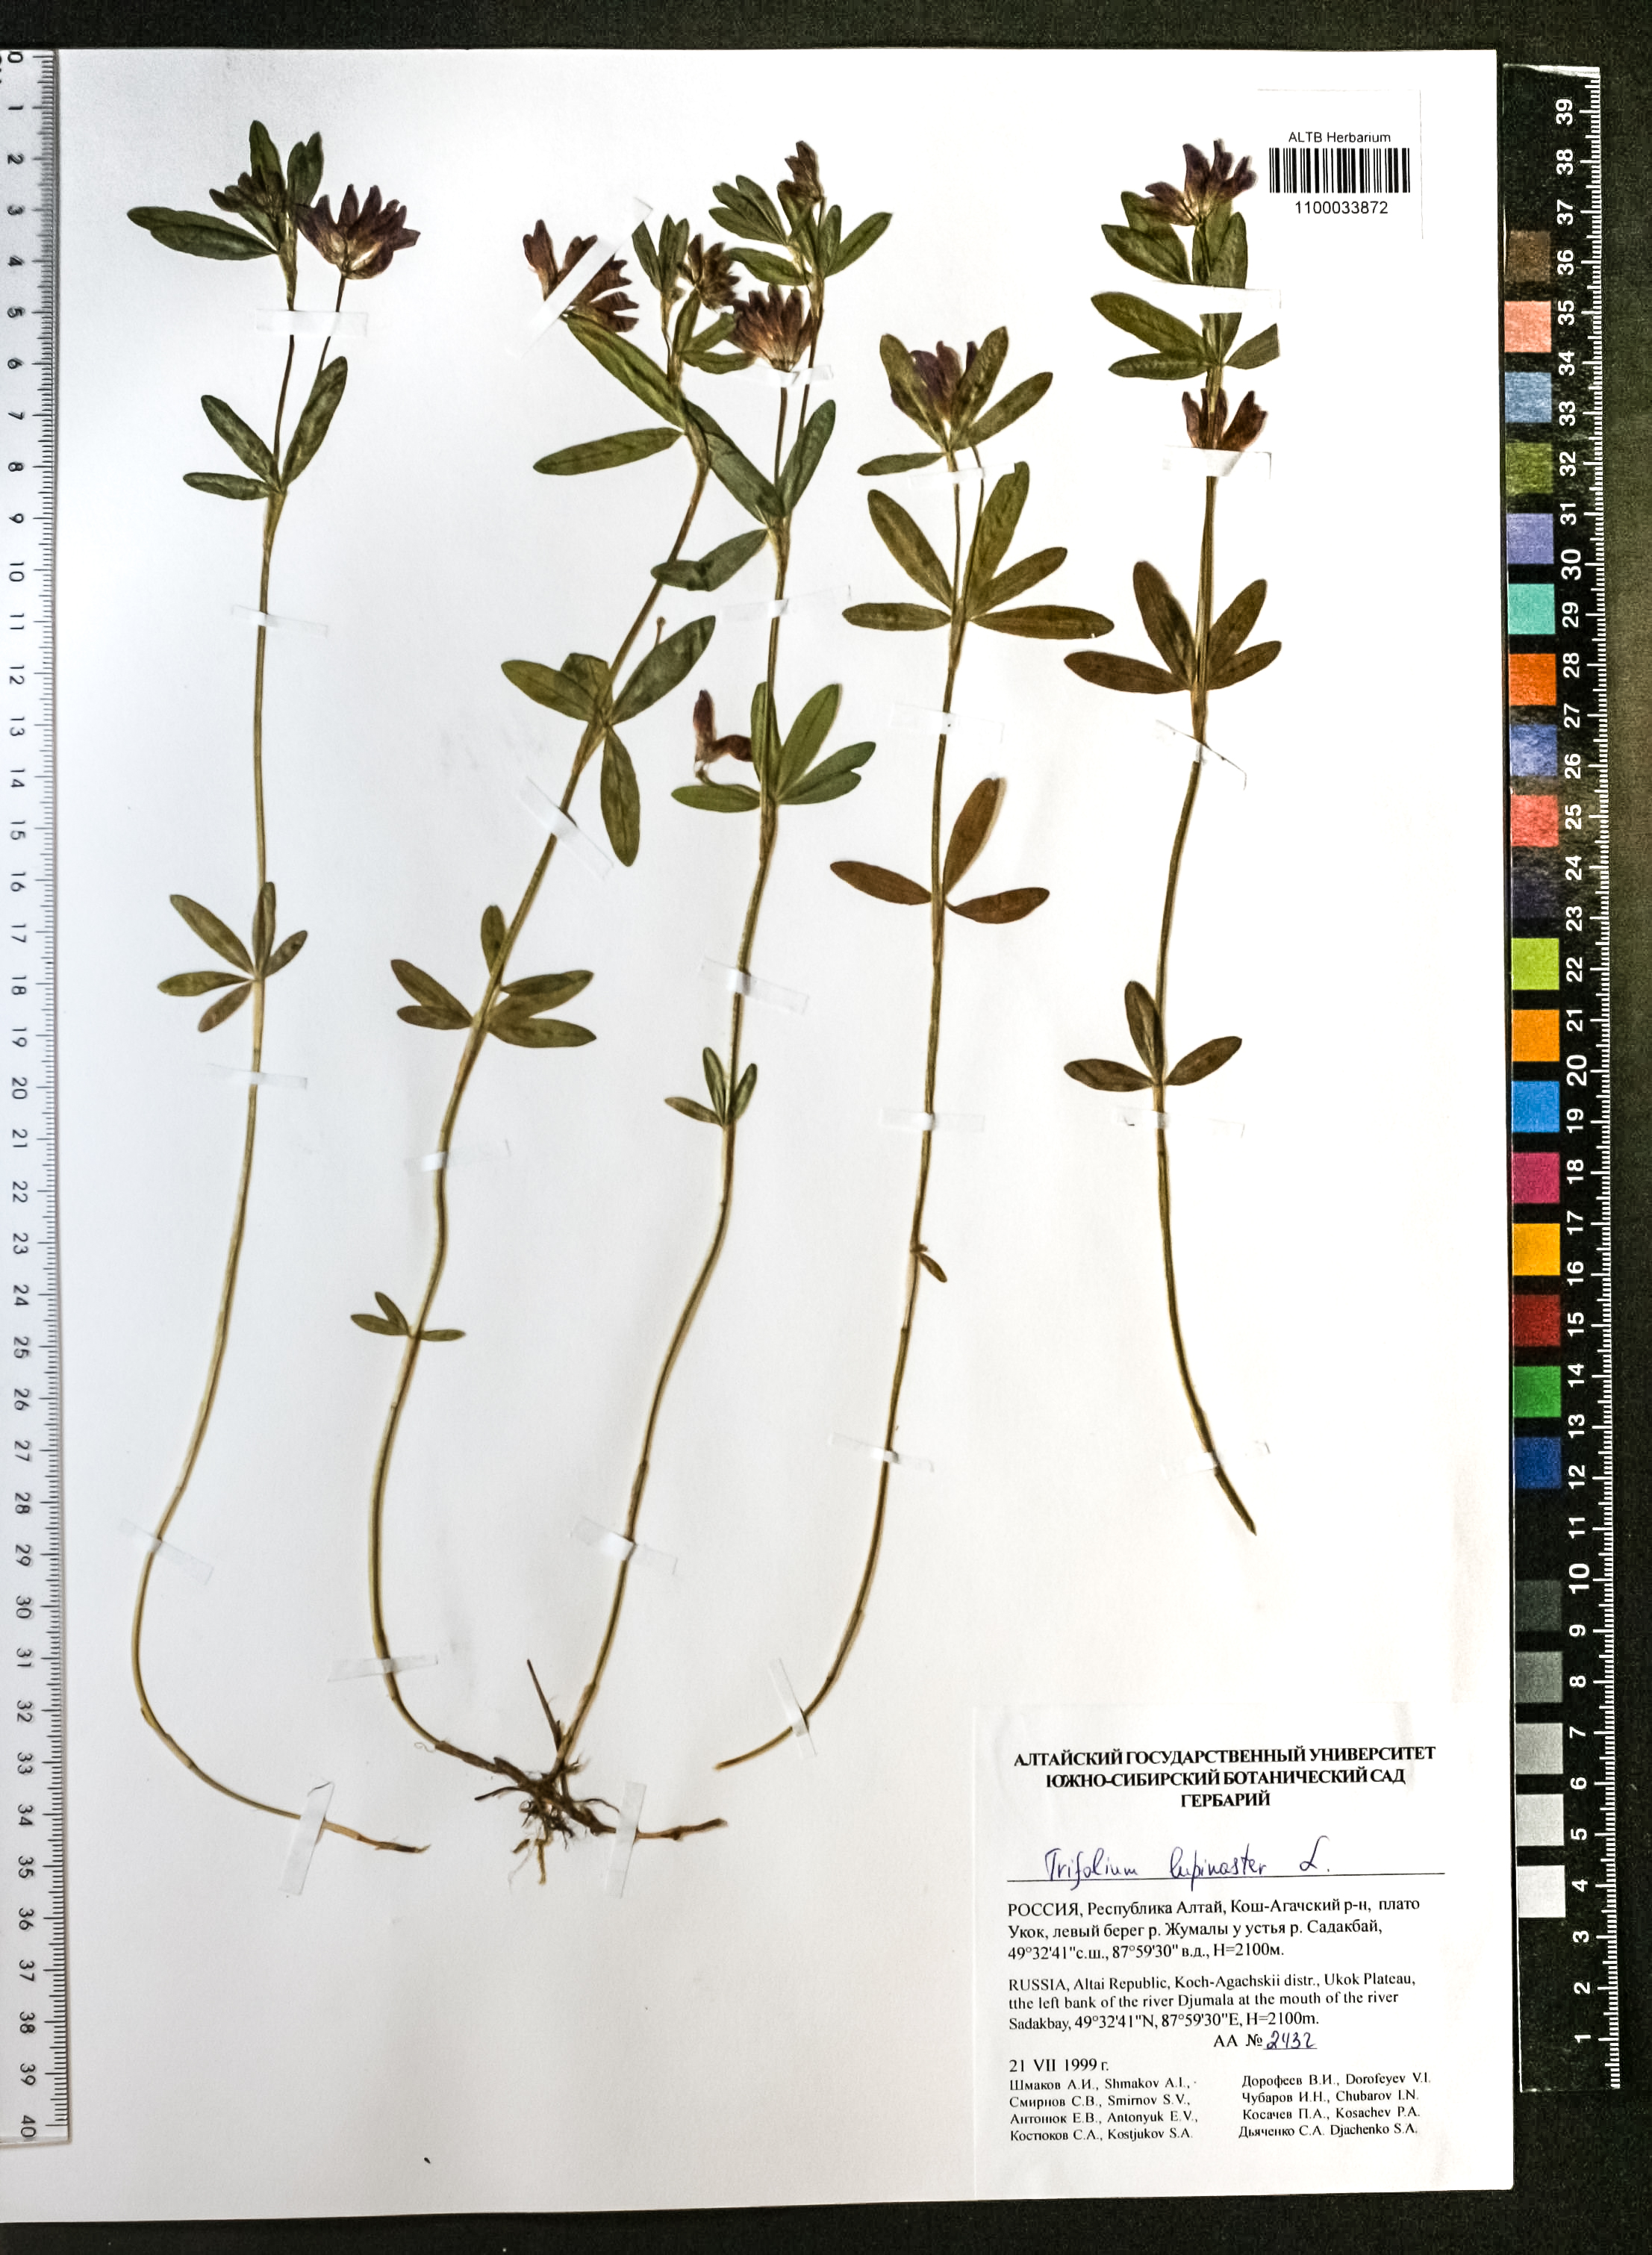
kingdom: Plantae
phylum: Tracheophyta
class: Magnoliopsida
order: Fabales
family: Fabaceae
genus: Trifolium
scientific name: Trifolium lupinaster
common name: Lupine clover
